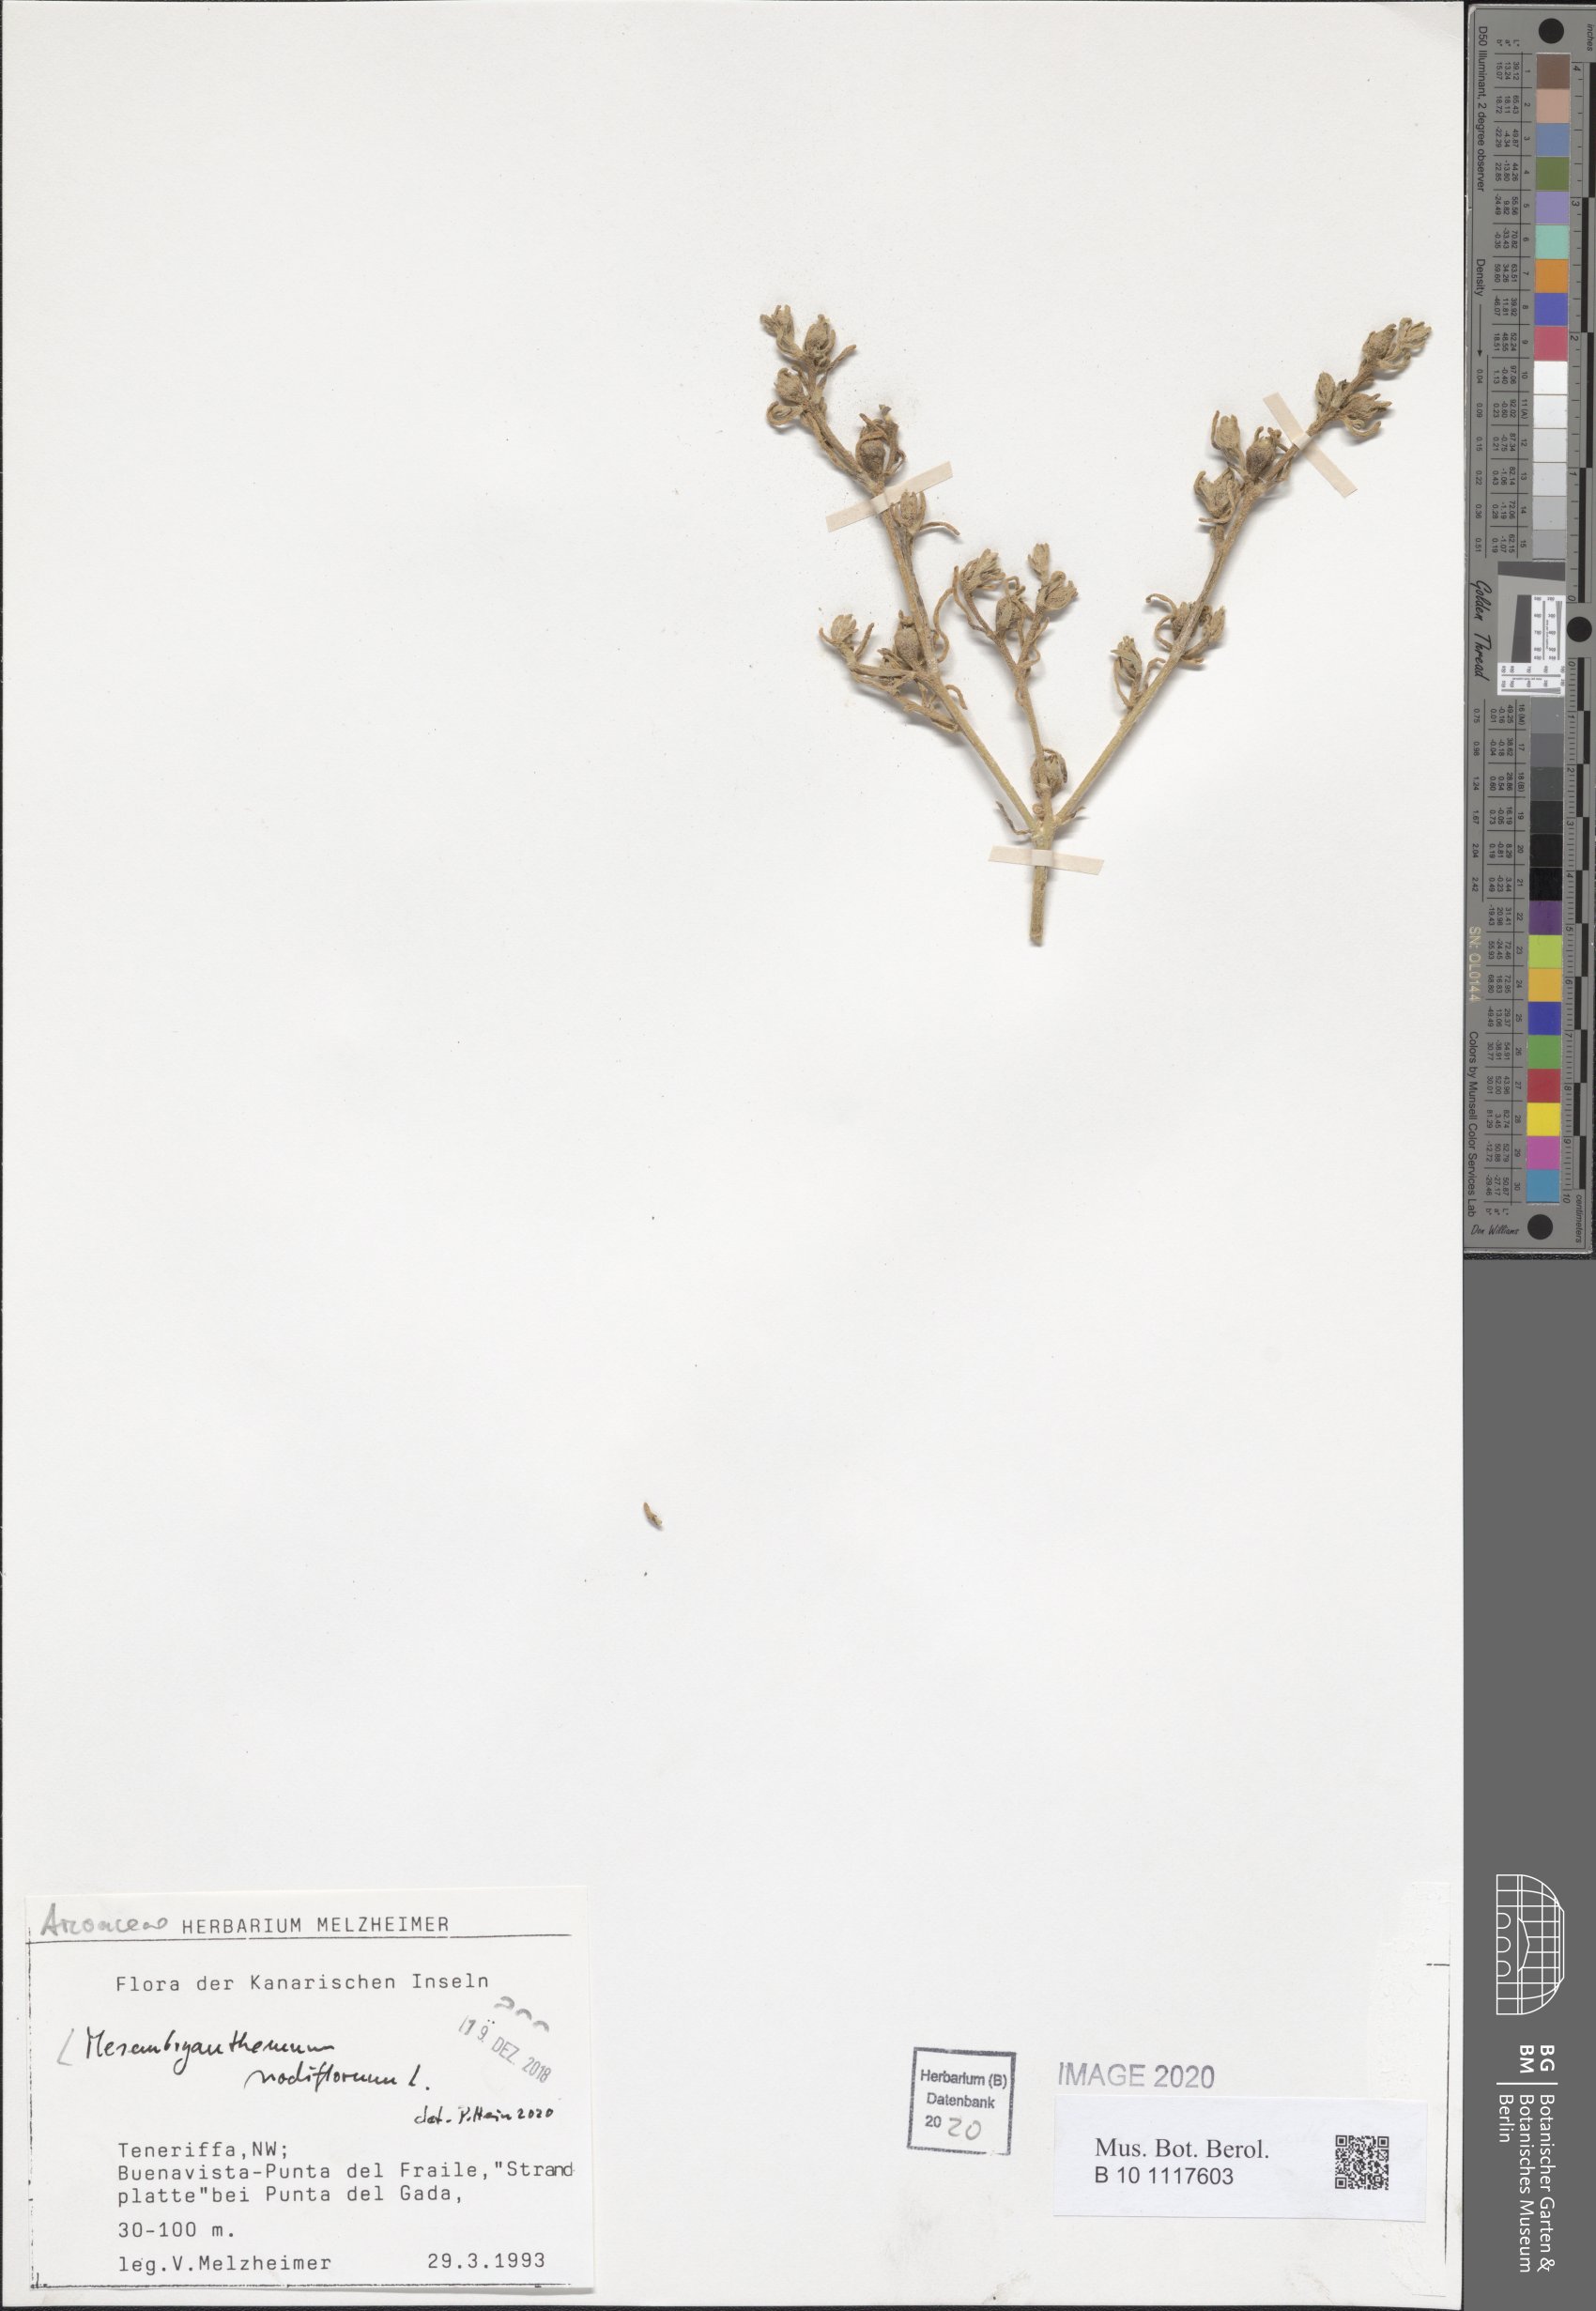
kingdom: Plantae
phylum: Tracheophyta
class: Magnoliopsida
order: Caryophyllales
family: Aizoaceae
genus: Mesembryanthemum
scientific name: Mesembryanthemum nodiflorum
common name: Slenderleaf iceplant
